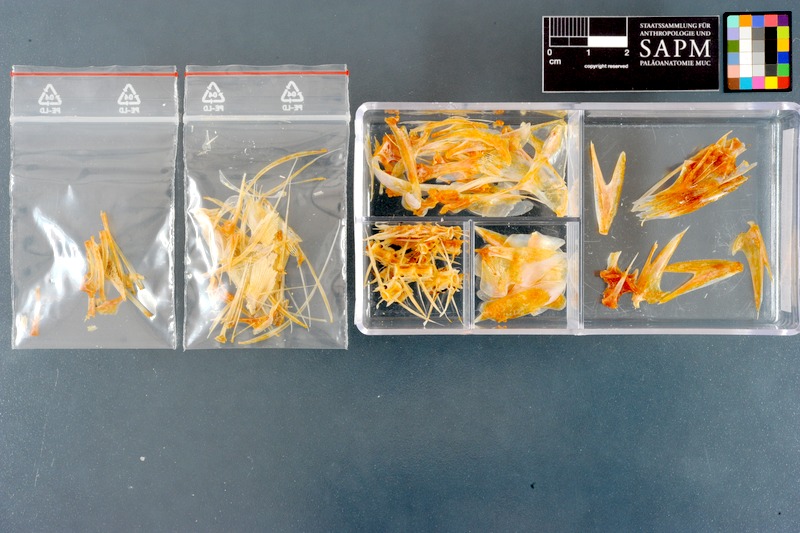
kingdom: Animalia
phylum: Chordata
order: Perciformes
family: Scombridae
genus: Rastrelliger
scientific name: Rastrelliger kanagurta
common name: Indian mackerel
